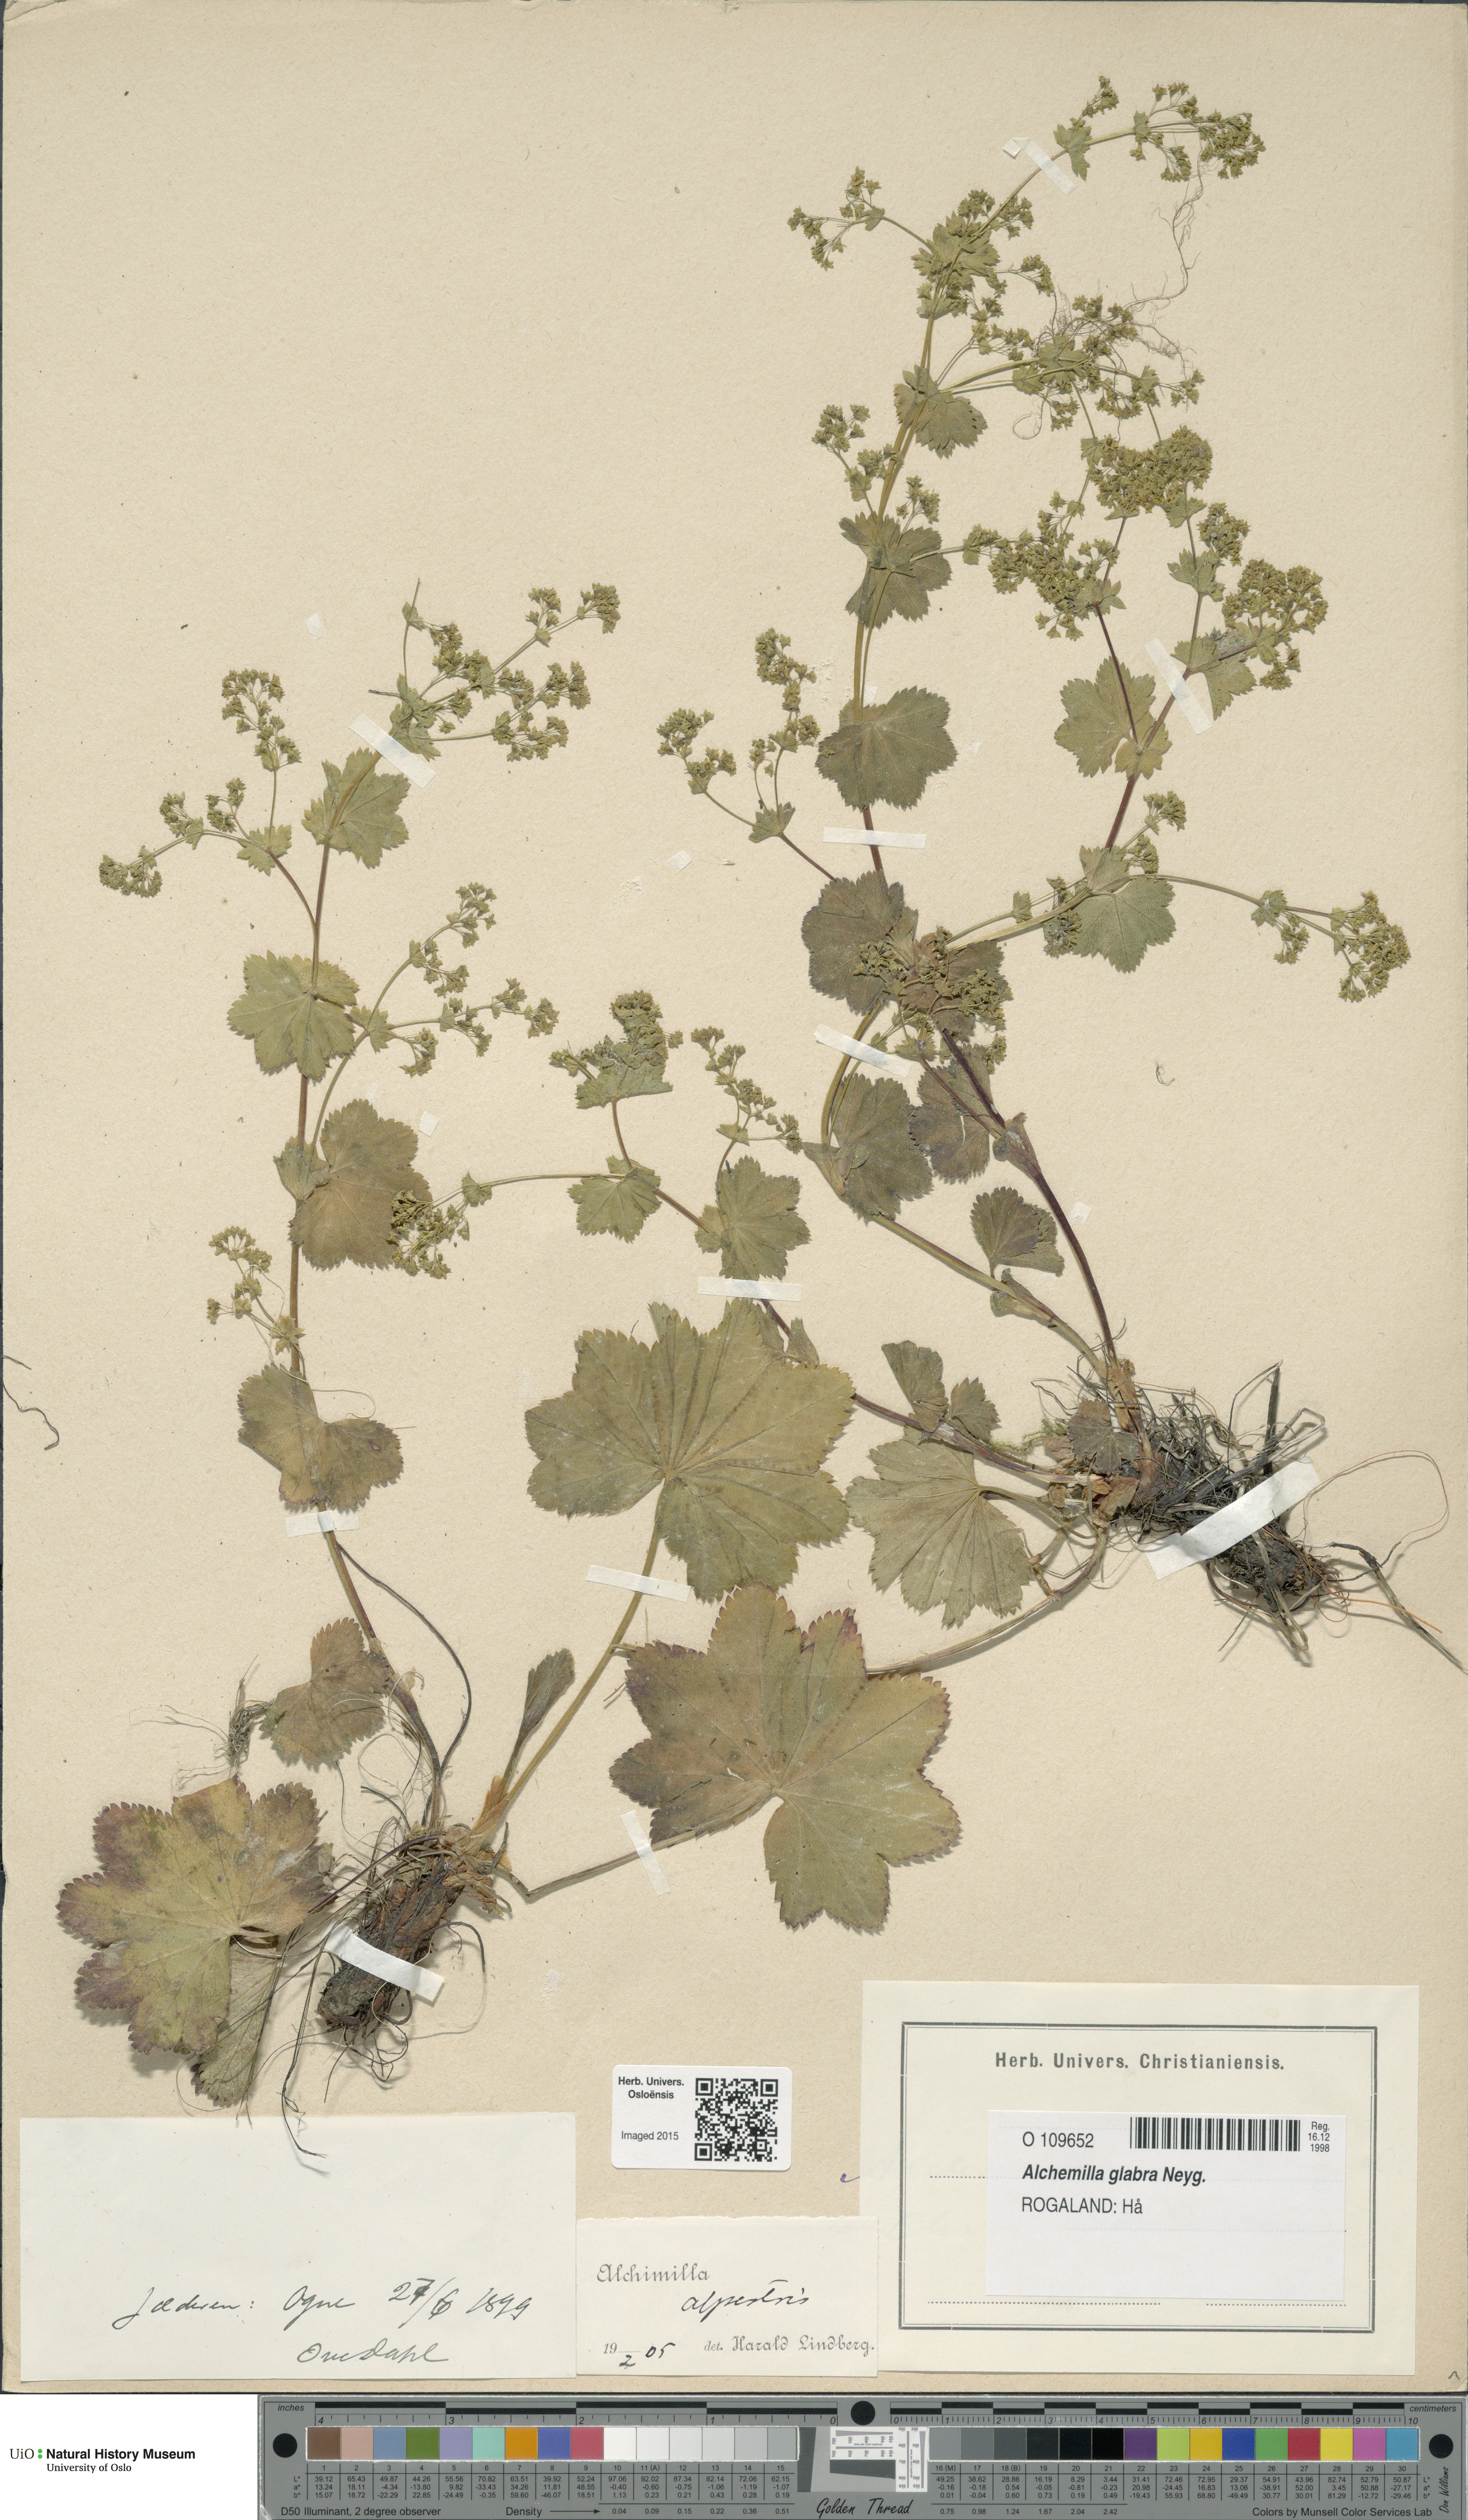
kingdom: Plantae
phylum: Tracheophyta
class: Magnoliopsida
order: Rosales
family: Rosaceae
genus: Alchemilla
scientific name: Alchemilla glabra
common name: Smooth lady's-mantle
